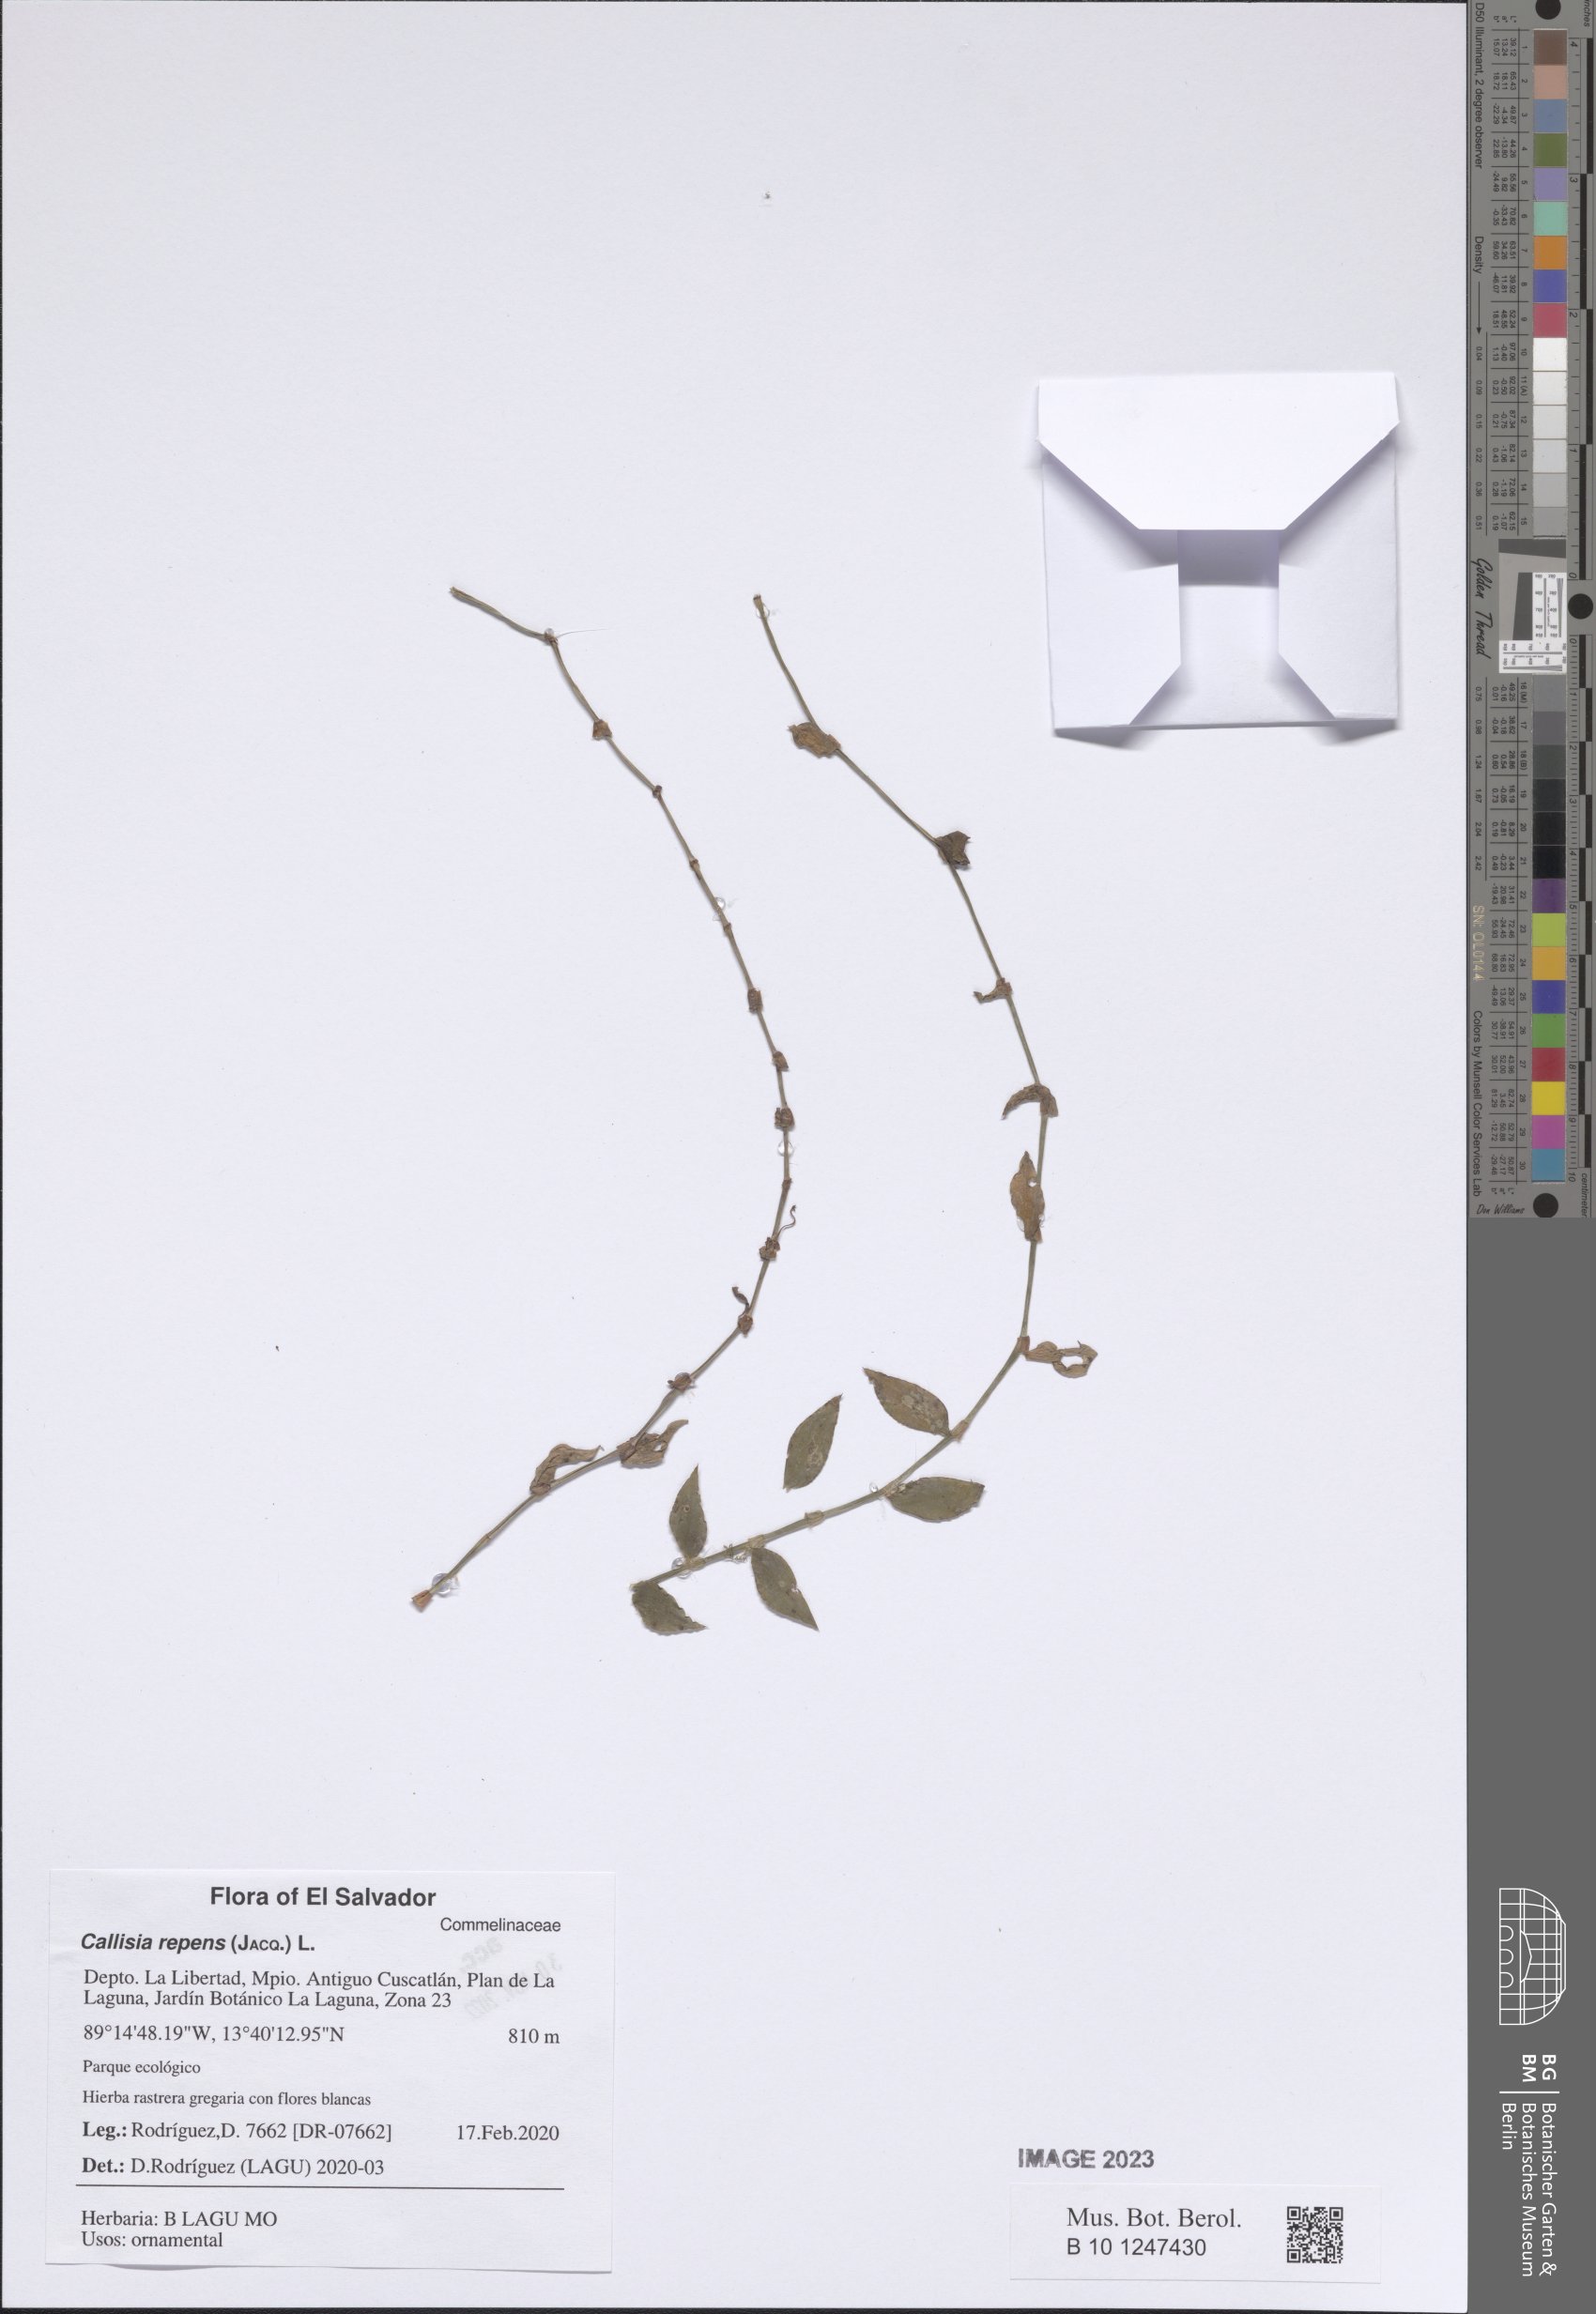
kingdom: Plantae
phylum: Tracheophyta
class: Liliopsida
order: Commelinales
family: Commelinaceae
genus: Callisia
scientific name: Callisia repens
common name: Creeping inchplant
